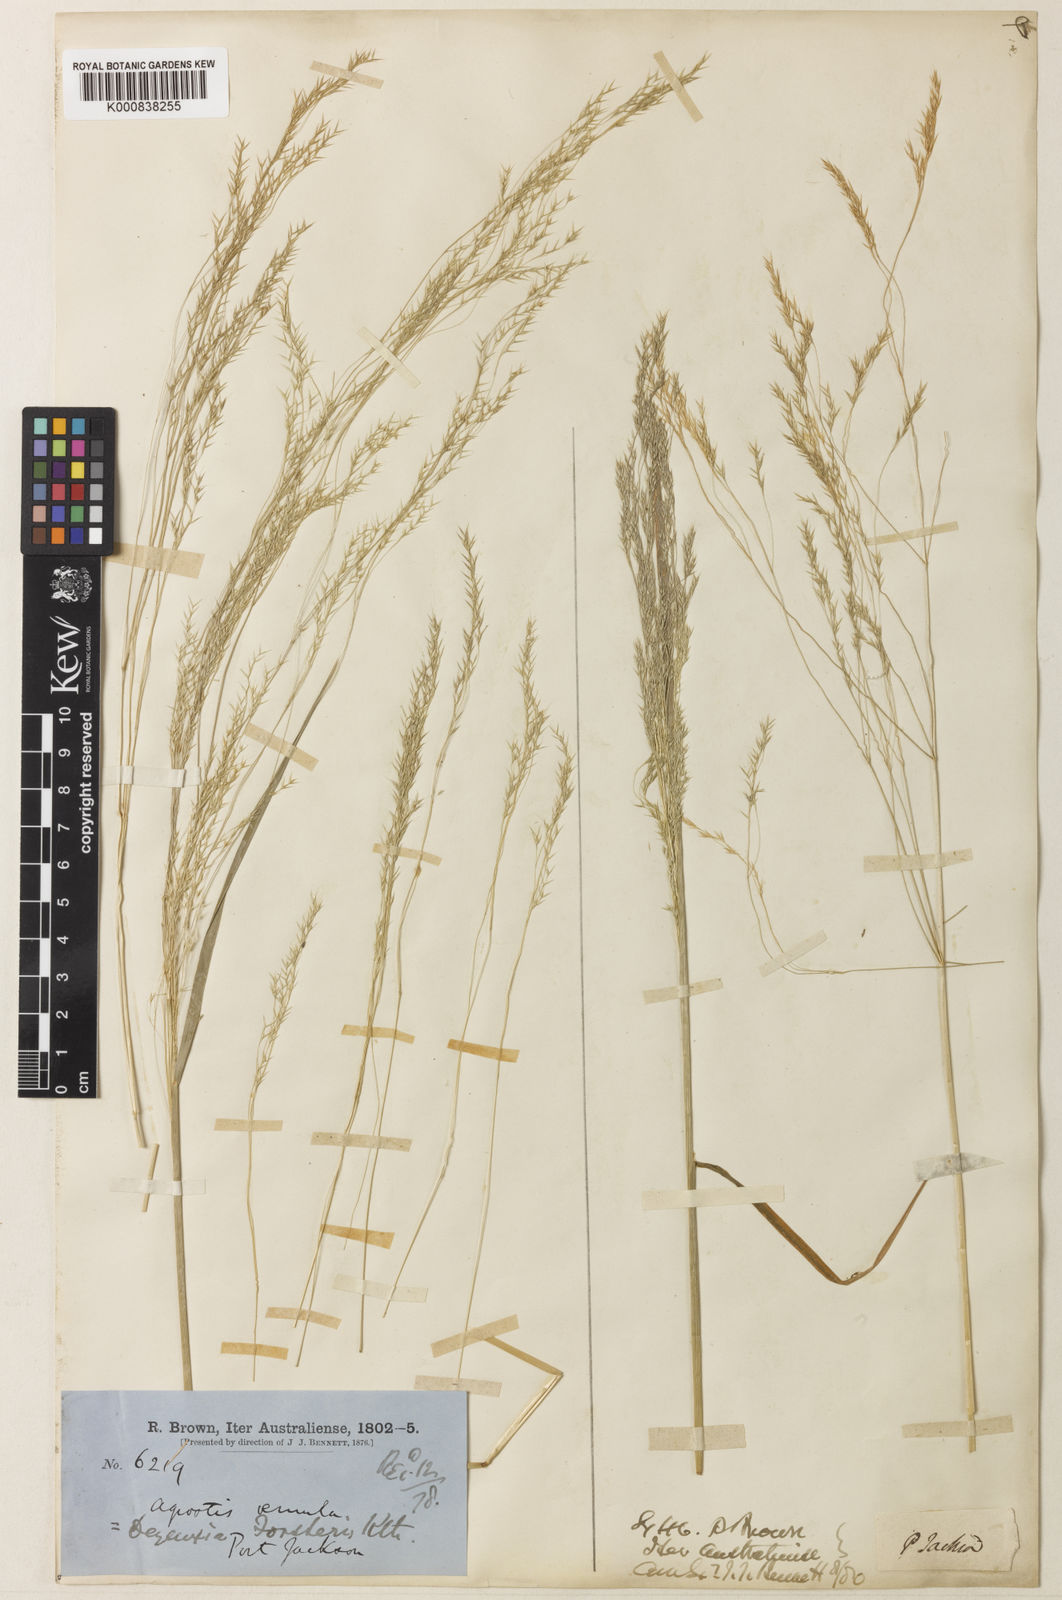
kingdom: Plantae
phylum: Tracheophyta
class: Liliopsida
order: Poales
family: Poaceae
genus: Lachnagrostis
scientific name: Lachnagrostis aemula
